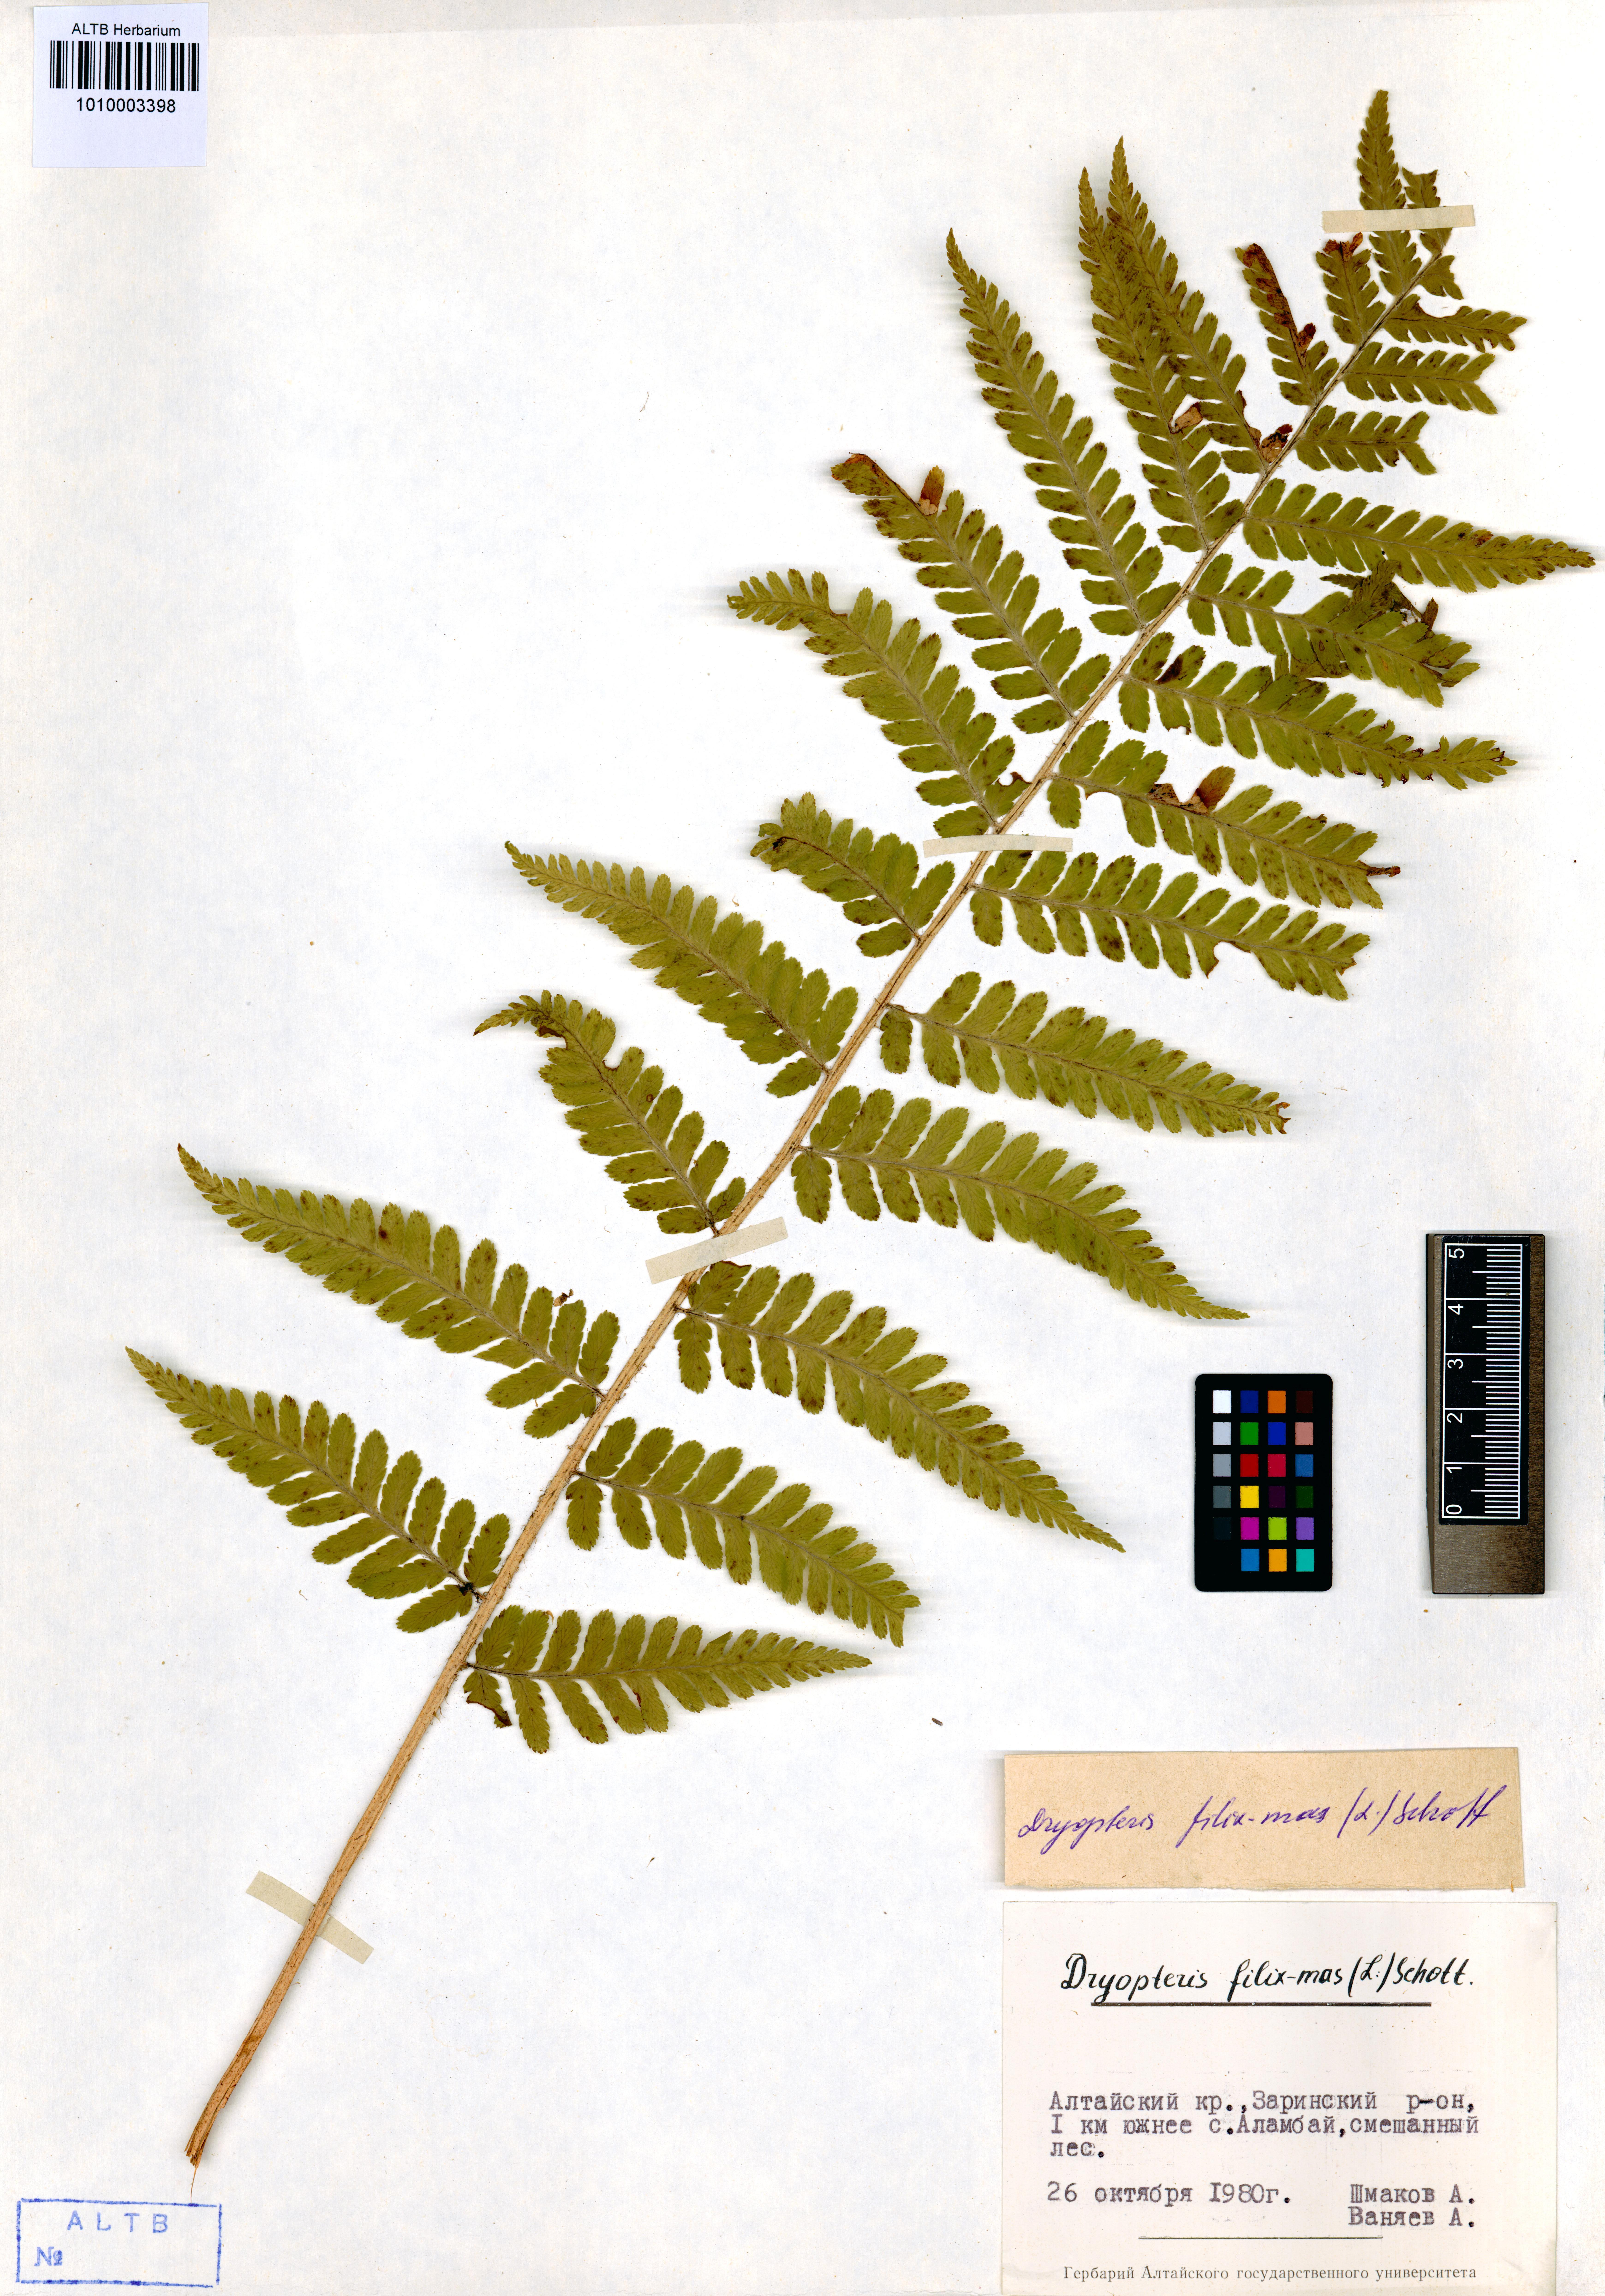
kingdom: Plantae
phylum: Tracheophyta
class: Polypodiopsida
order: Polypodiales
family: Dryopteridaceae
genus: Dryopteris
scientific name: Dryopteris filix-mas
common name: Male fern
